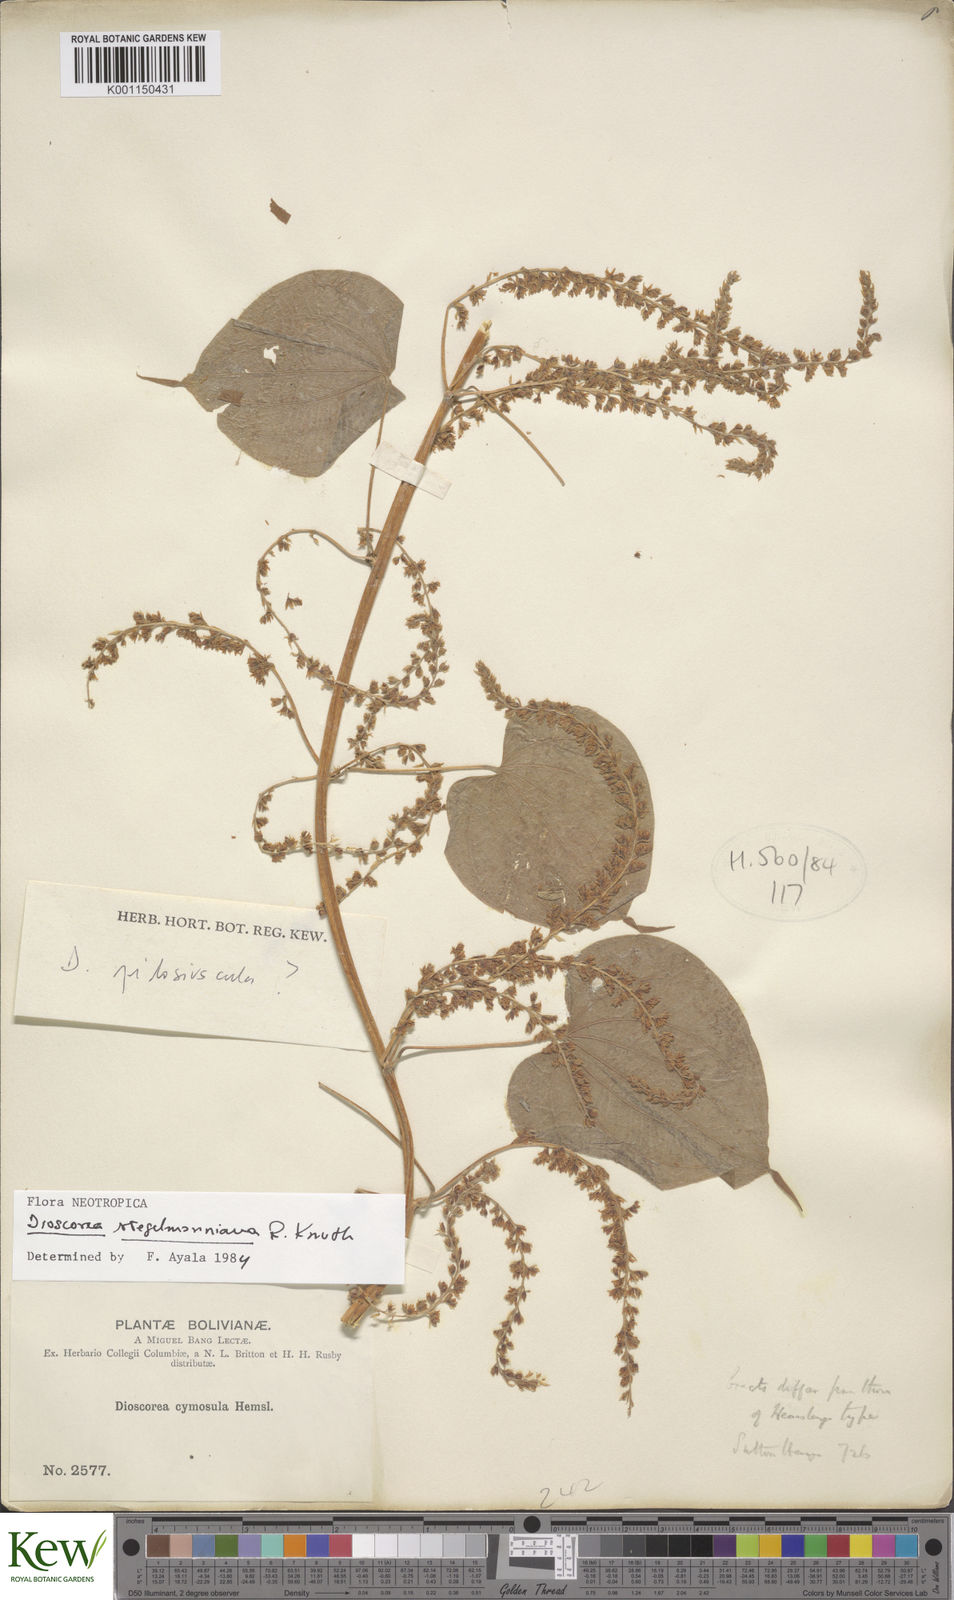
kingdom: Plantae
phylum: Tracheophyta
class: Liliopsida
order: Dioscoreales
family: Dioscoreaceae
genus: Dioscorea
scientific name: Dioscorea stegelmanniana
